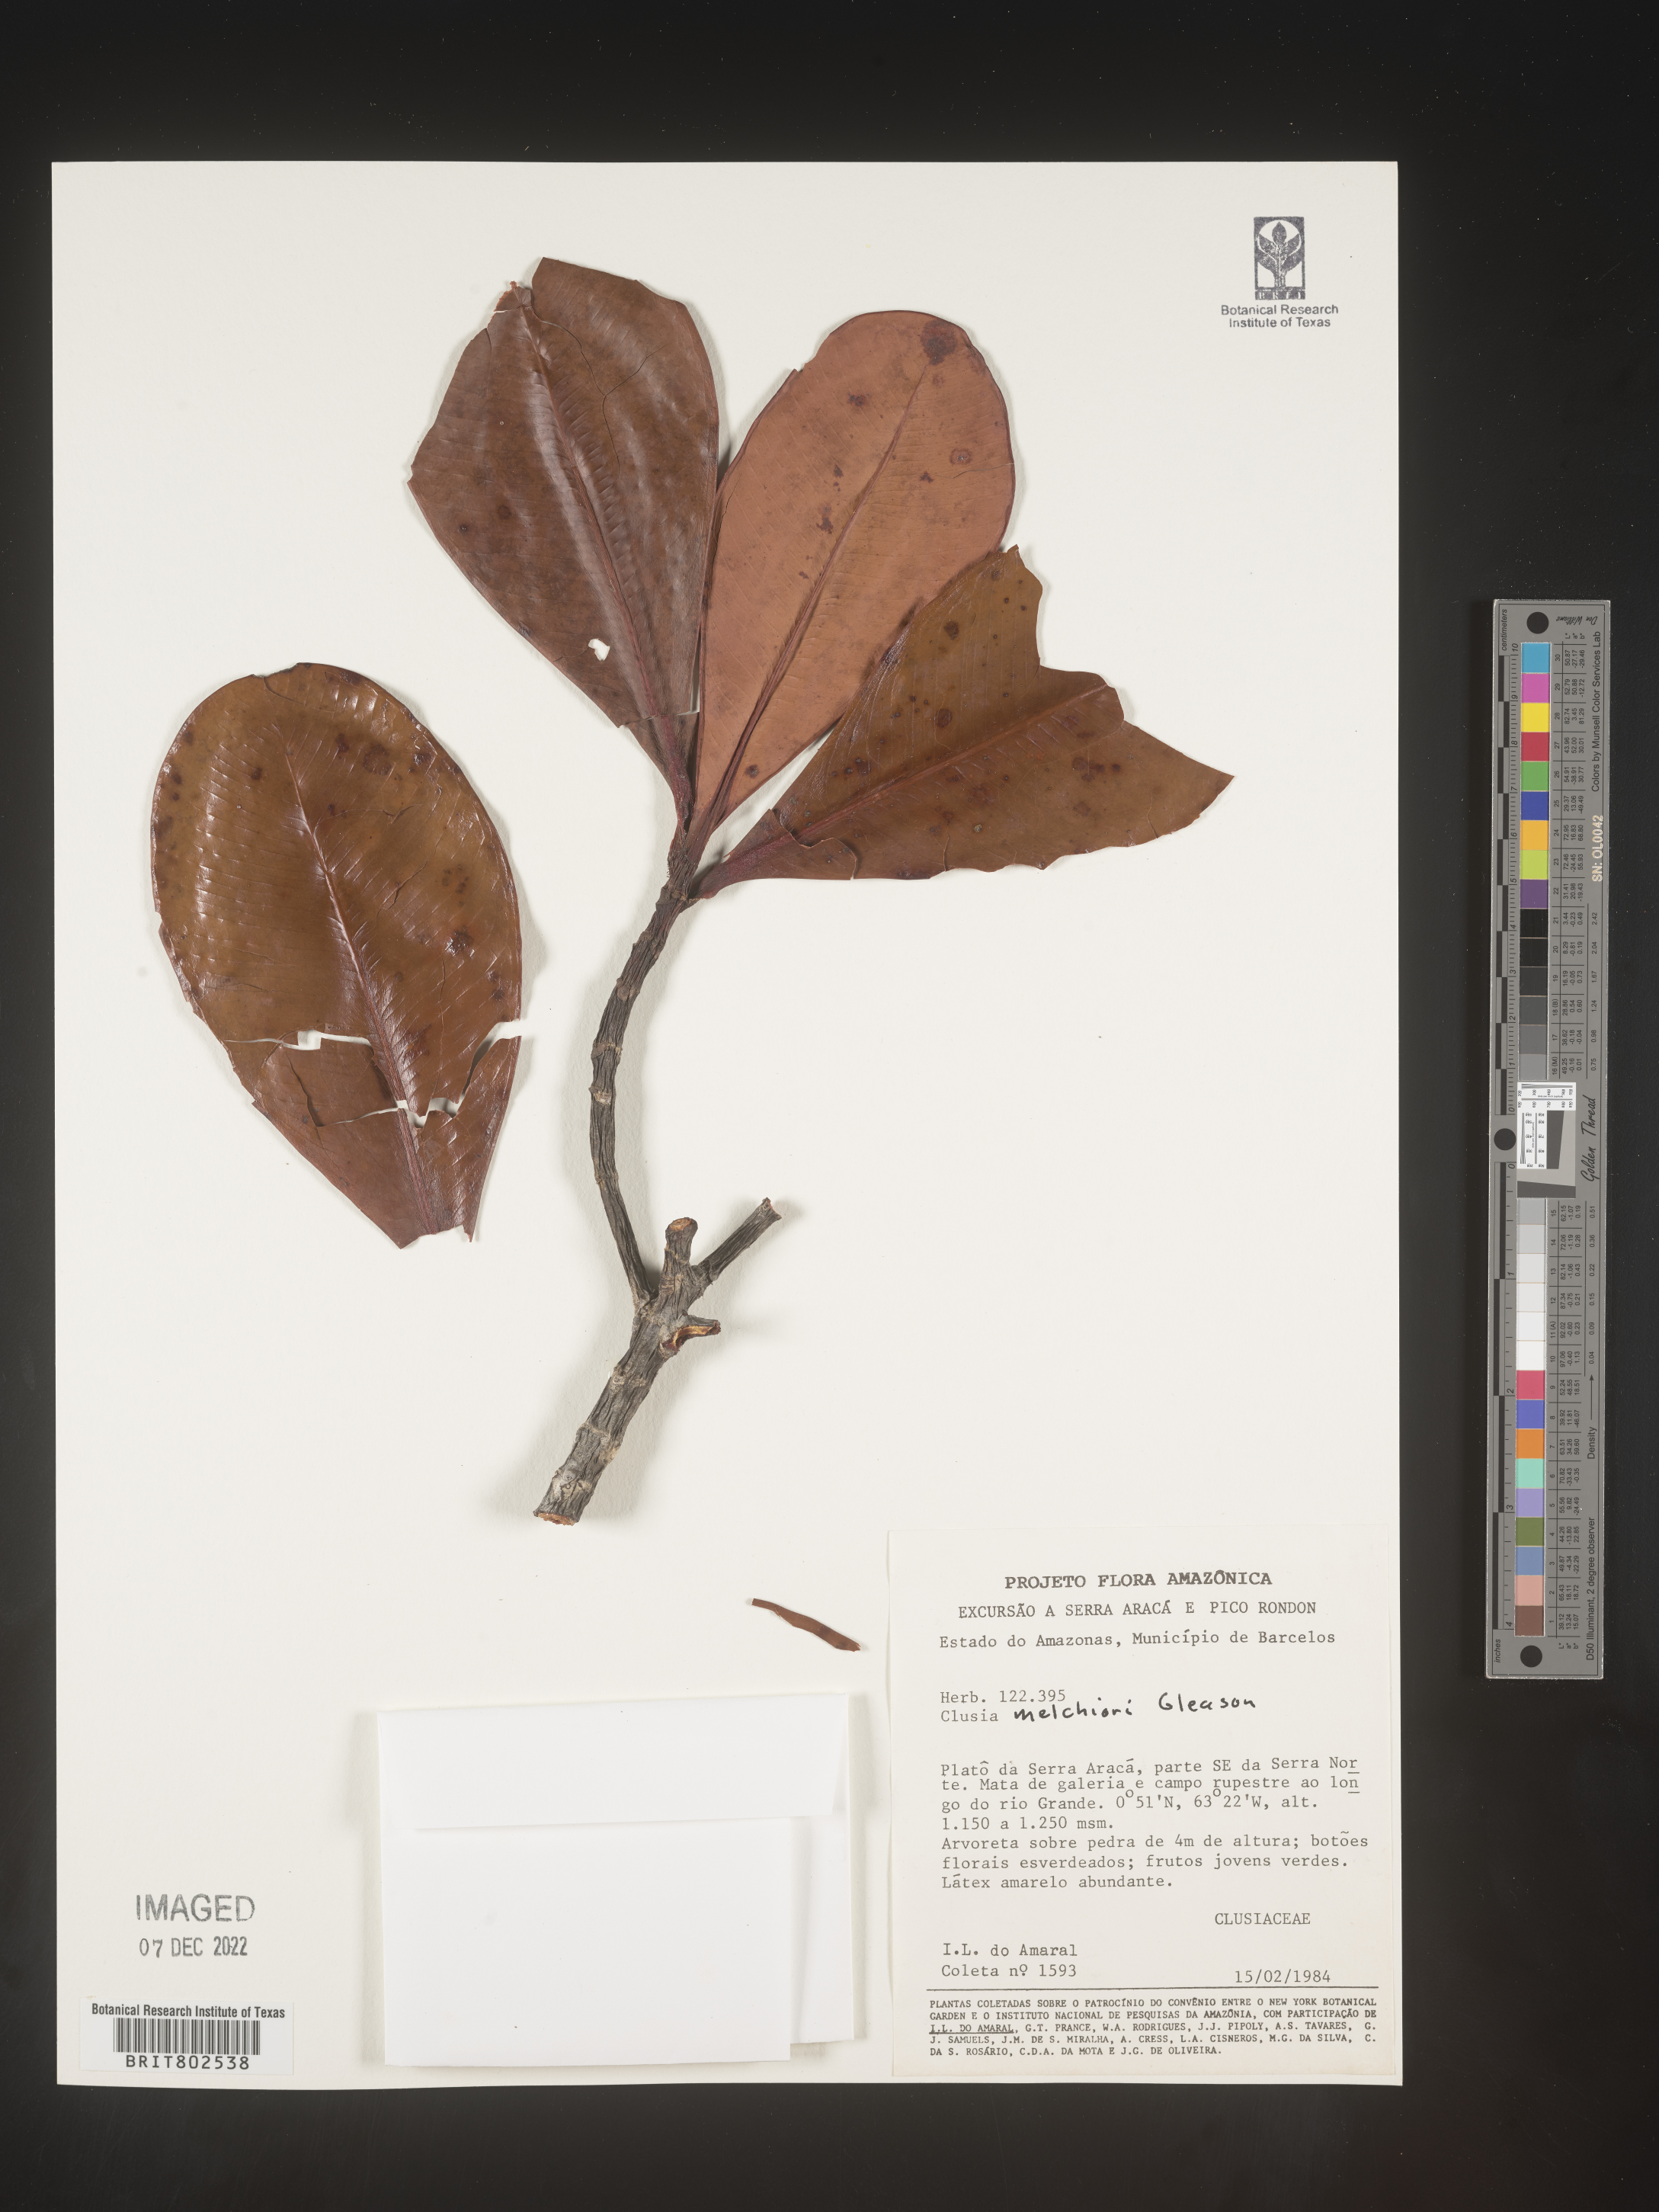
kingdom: Plantae
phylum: Tracheophyta
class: Magnoliopsida
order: Malpighiales
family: Clusiaceae
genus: Clusia
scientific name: Clusia melchiorii
